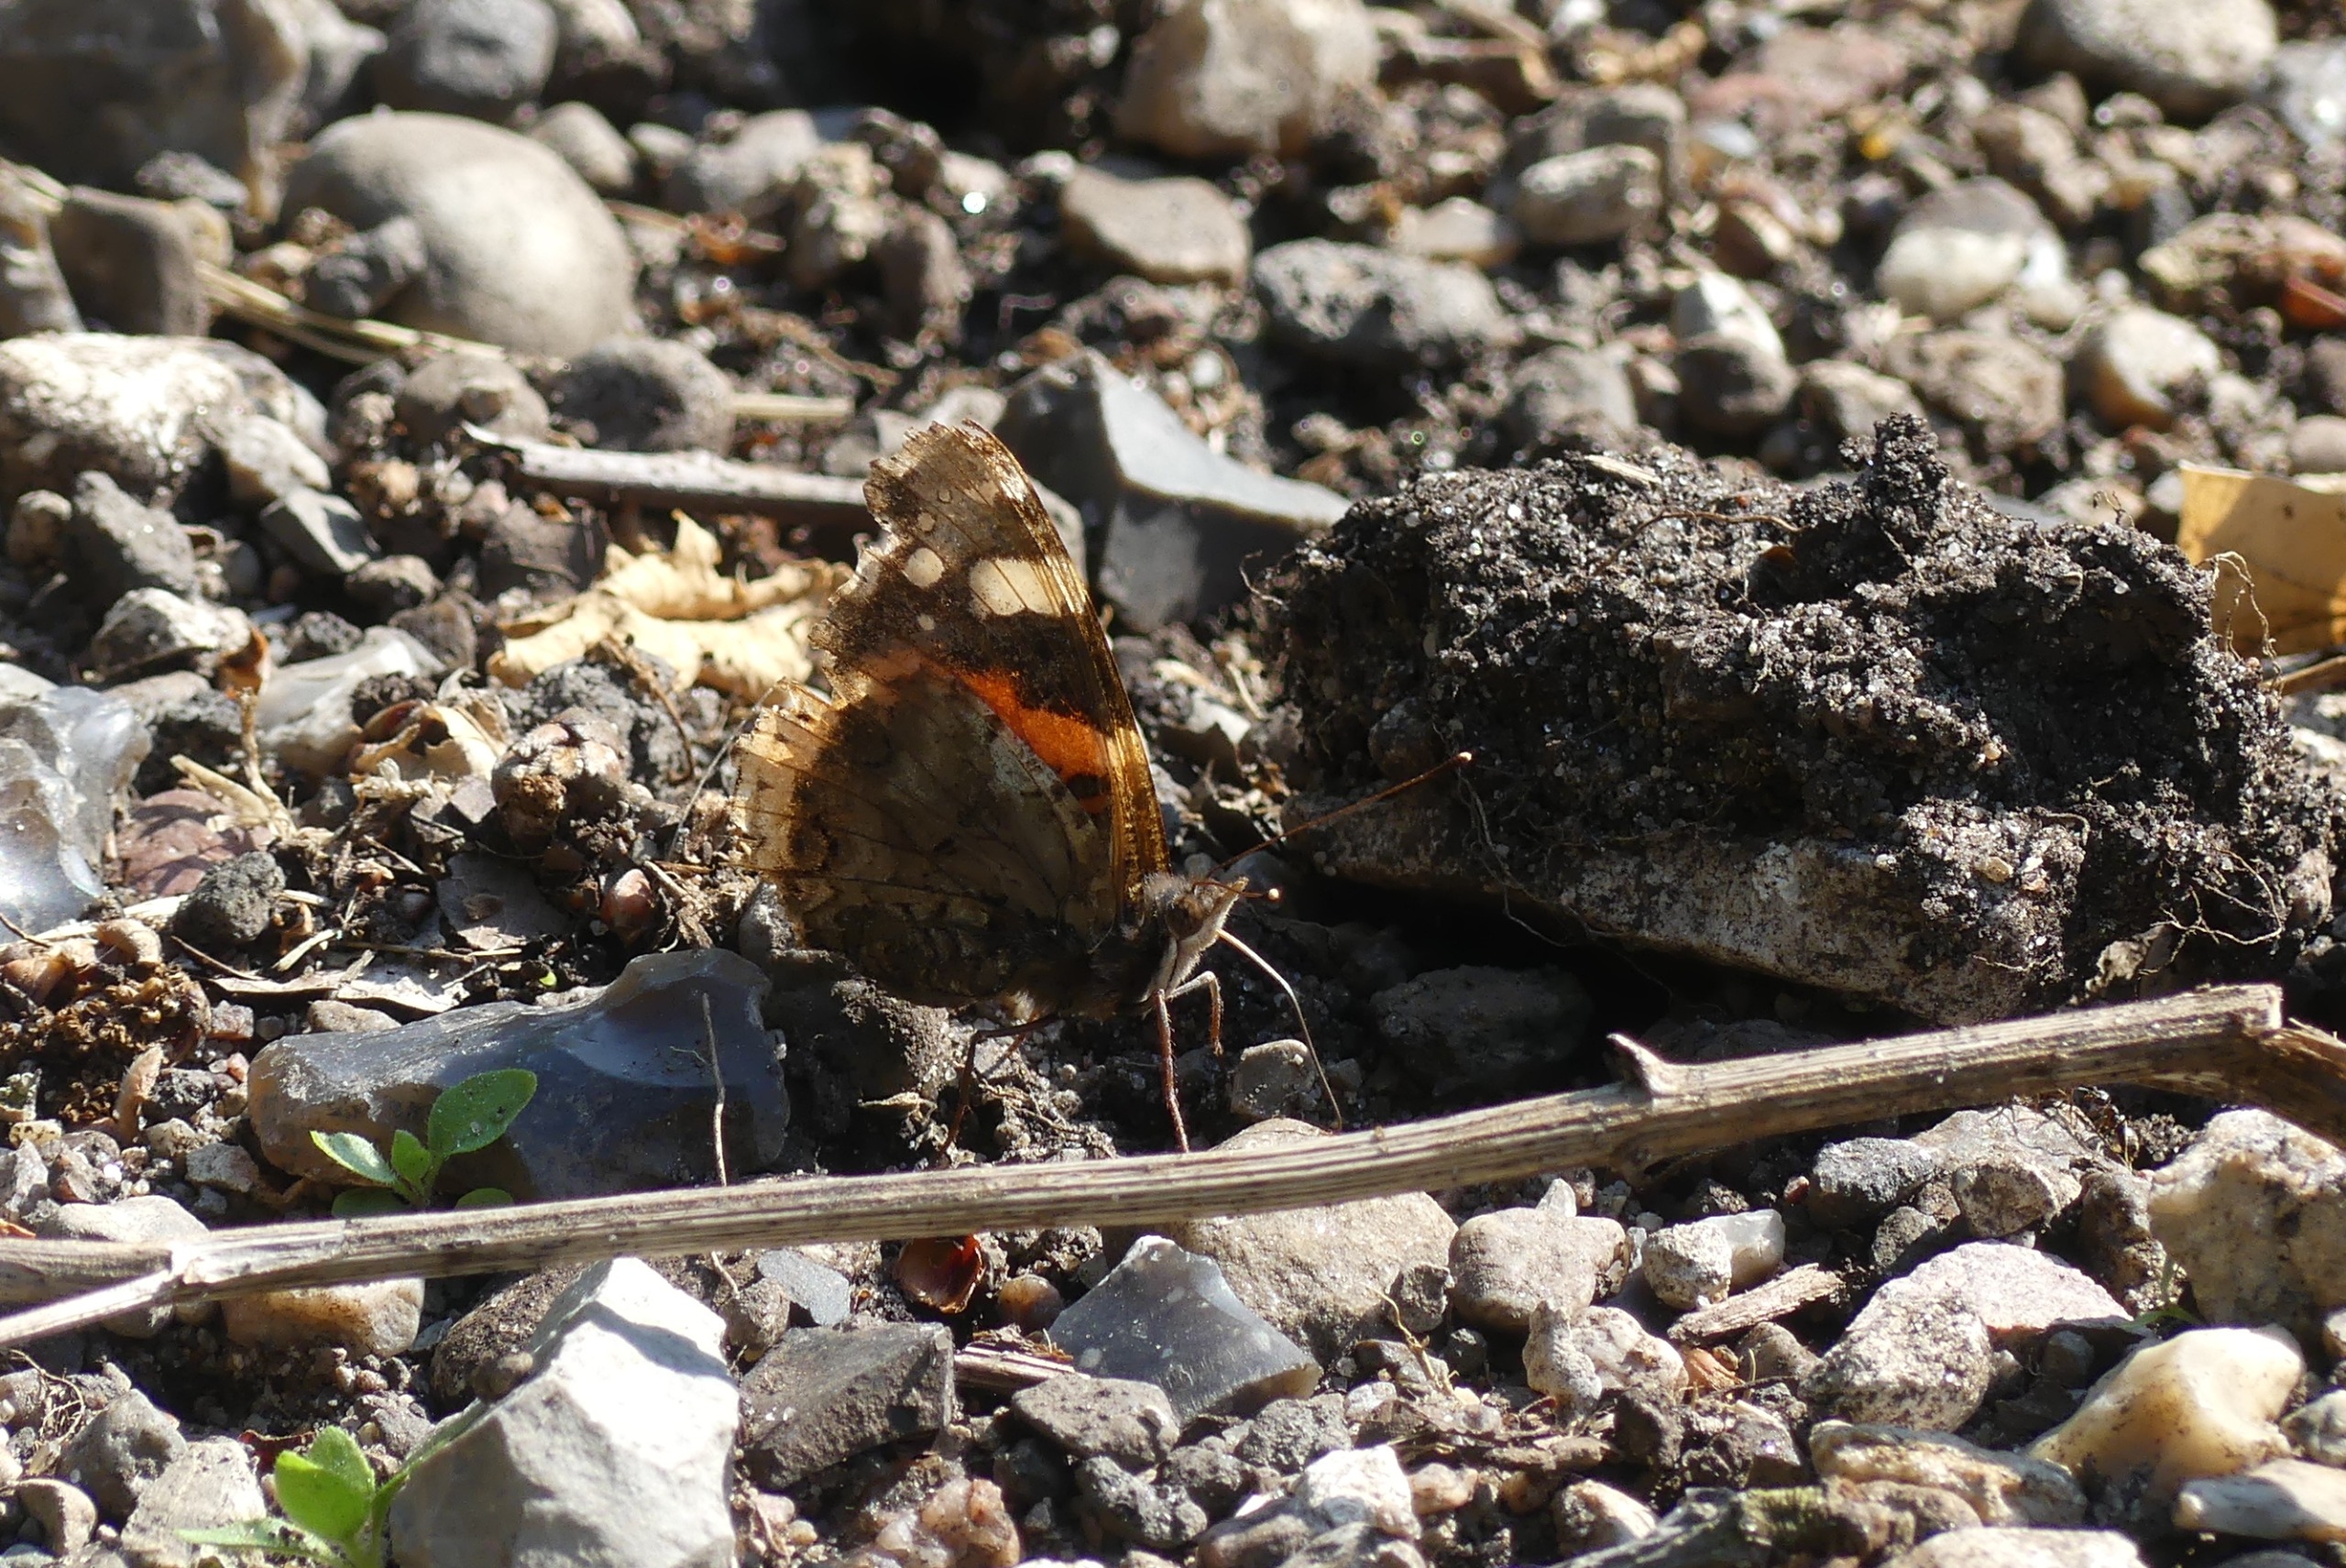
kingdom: Animalia
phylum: Arthropoda
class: Insecta
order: Lepidoptera
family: Nymphalidae
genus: Vanessa
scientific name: Vanessa atalanta
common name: Admiral
